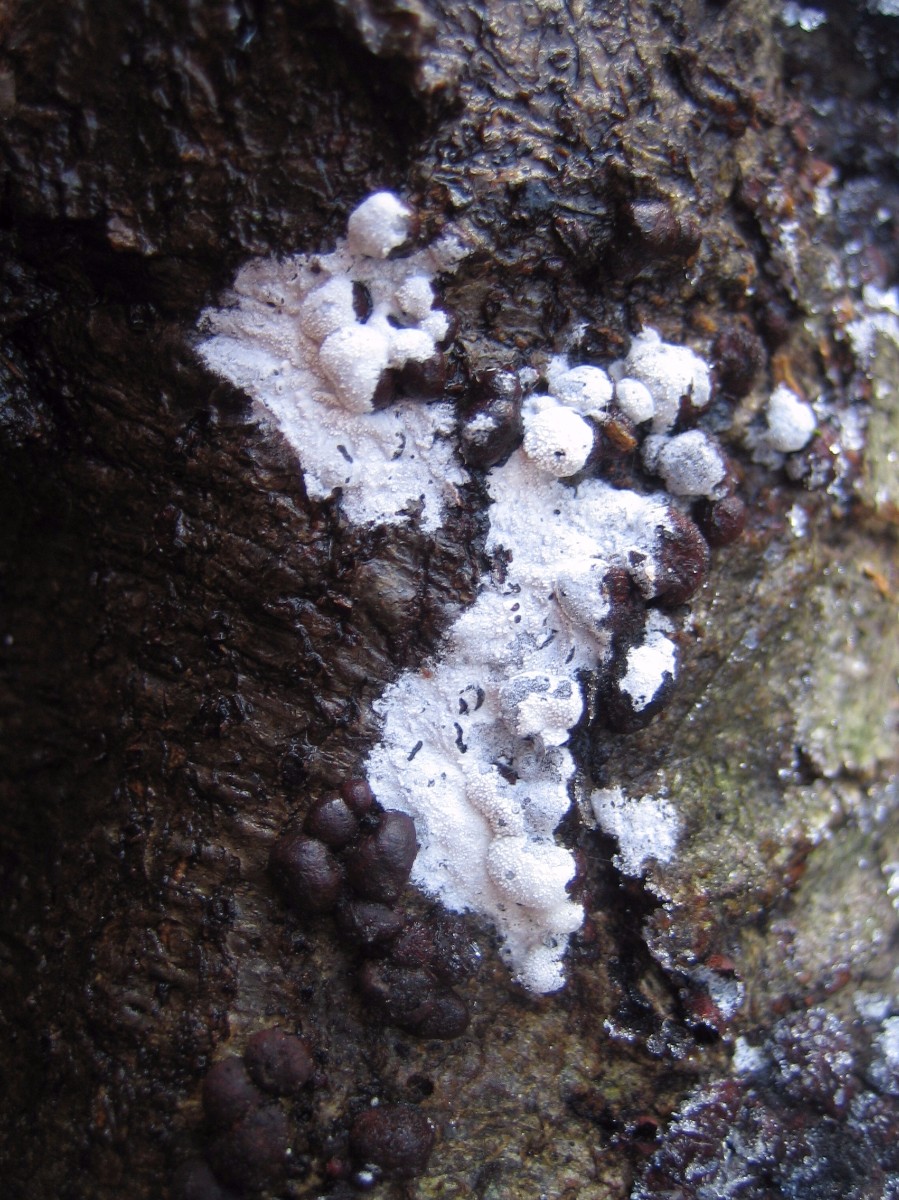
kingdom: Fungi
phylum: Basidiomycota
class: Agaricomycetes
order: Corticiales
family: Corticiaceae
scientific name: Corticiaceae
